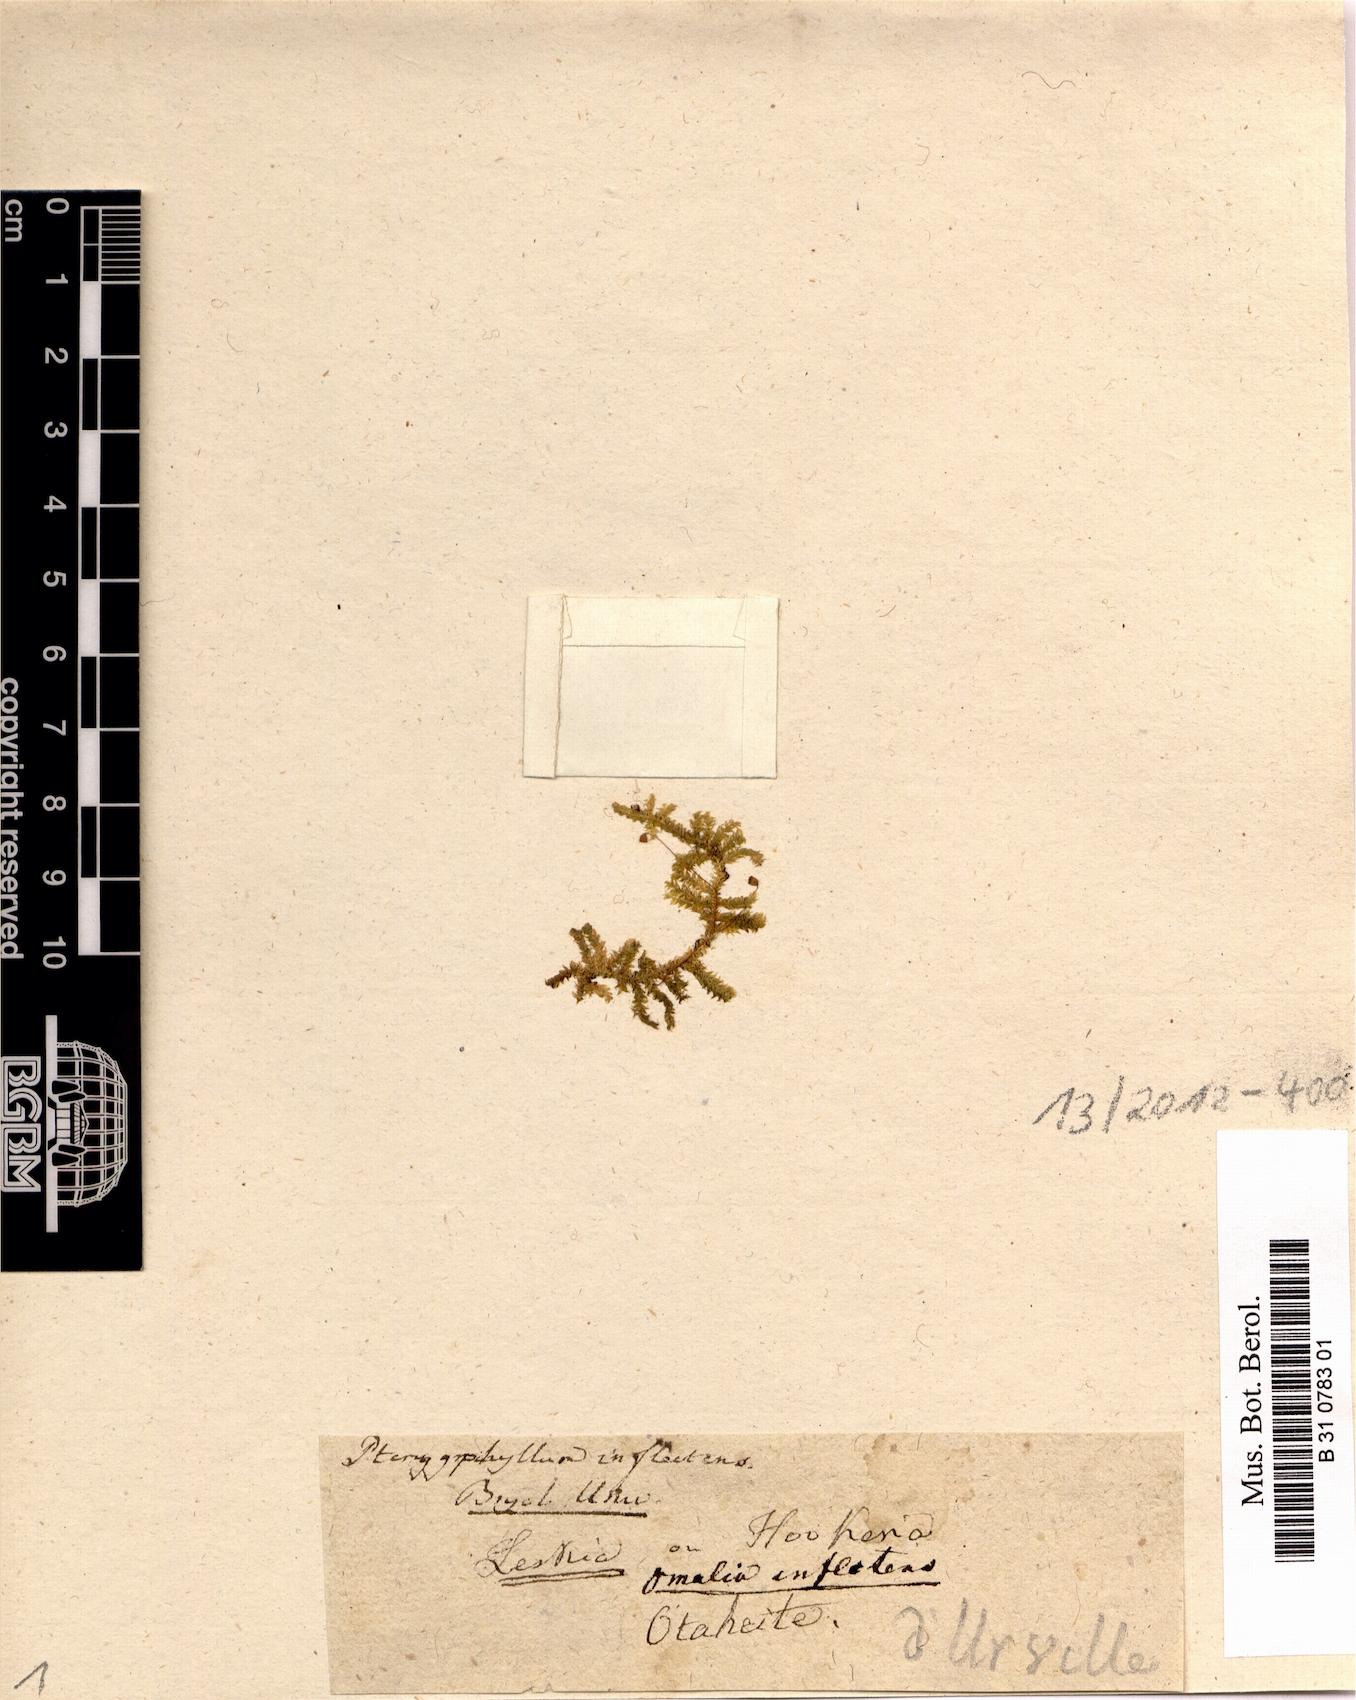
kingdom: Plantae
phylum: Bryophyta
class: Bryopsida
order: Hypnales
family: Hypnaceae
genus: Vesicularia
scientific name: Vesicularia inflectens
